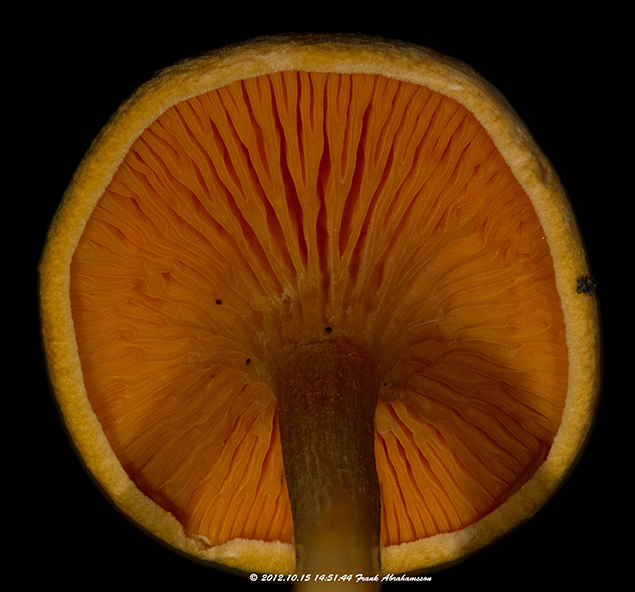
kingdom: Fungi
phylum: Basidiomycota
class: Agaricomycetes
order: Boletales
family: Hygrophoropsidaceae
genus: Hygrophoropsis
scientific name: Hygrophoropsis aurantiaca
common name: almindelig orangekantarel
